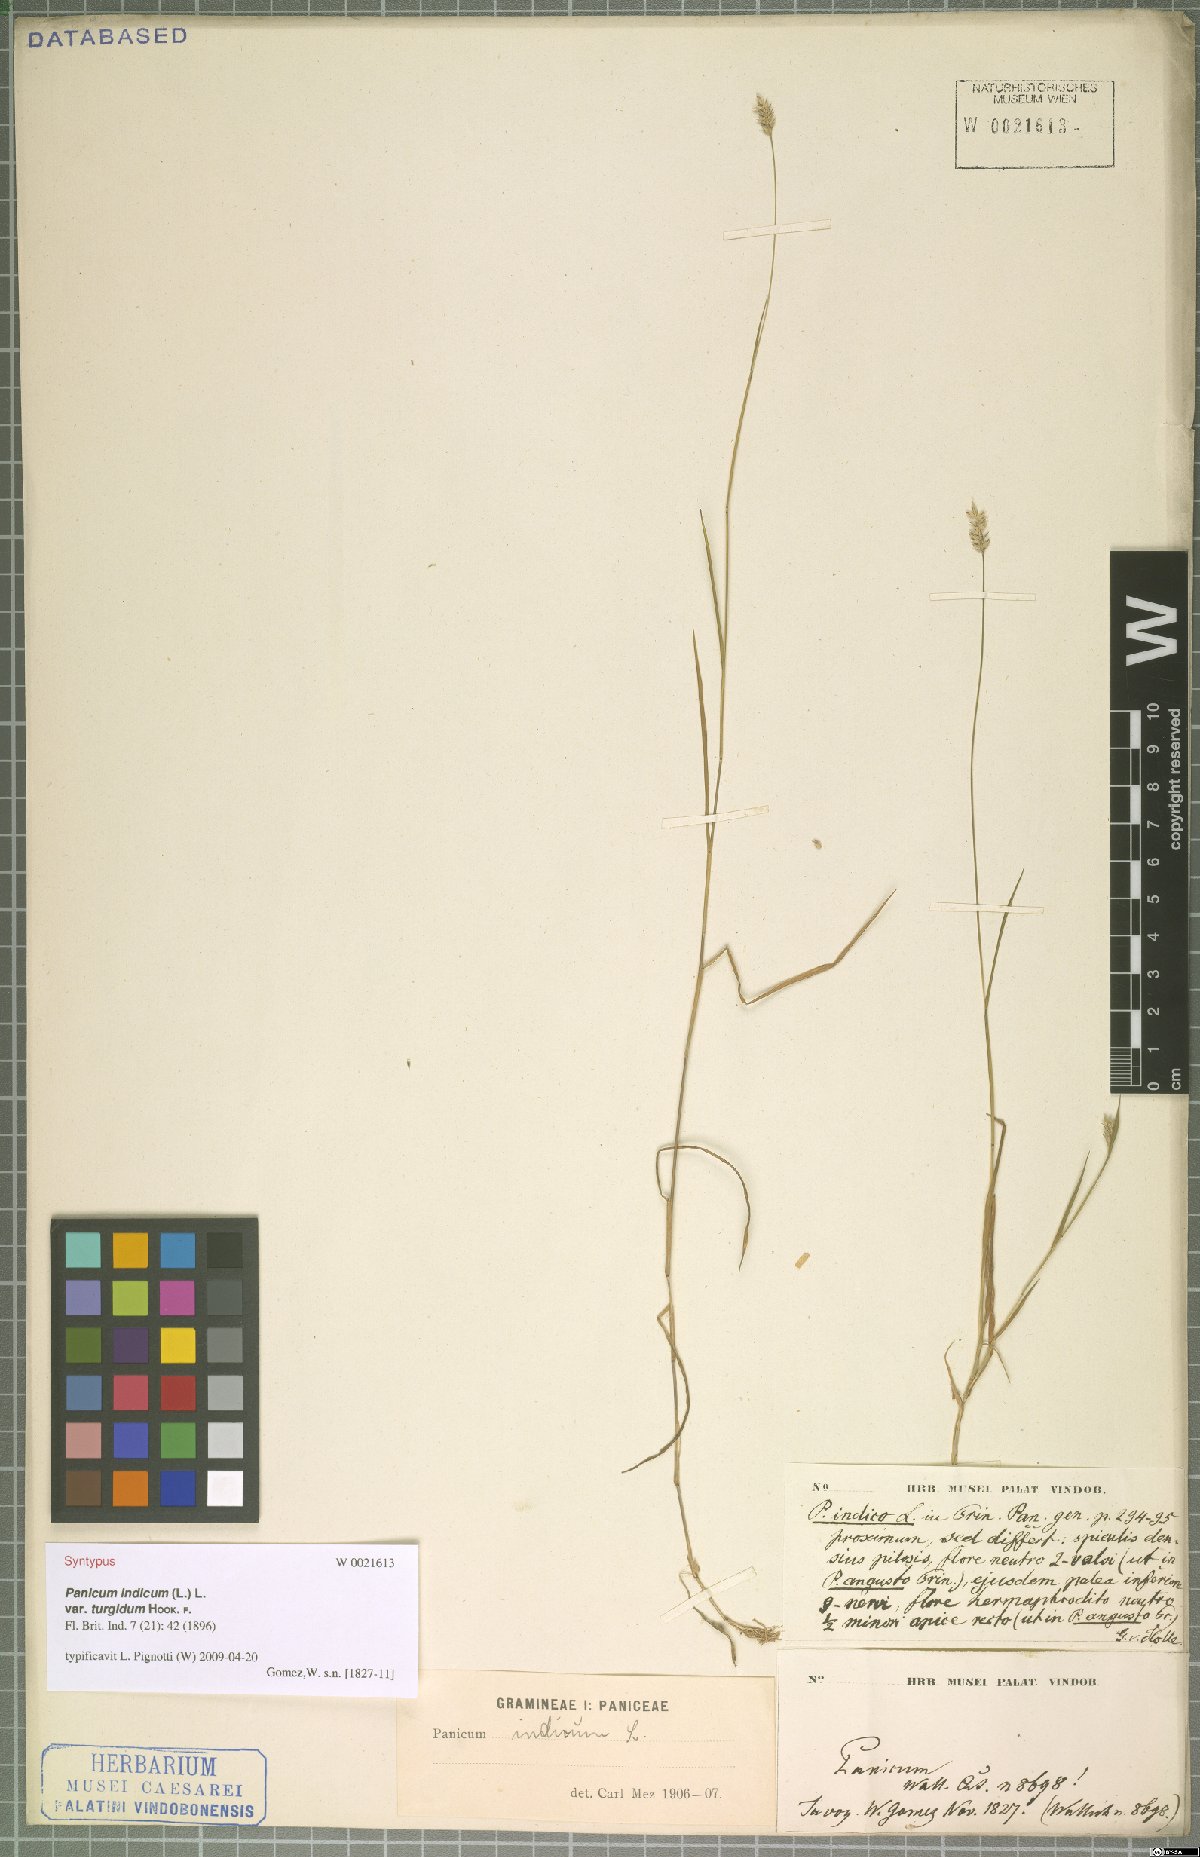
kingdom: Plantae
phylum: Tracheophyta
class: Liliopsida
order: Poales
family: Poaceae
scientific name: Poaceae
